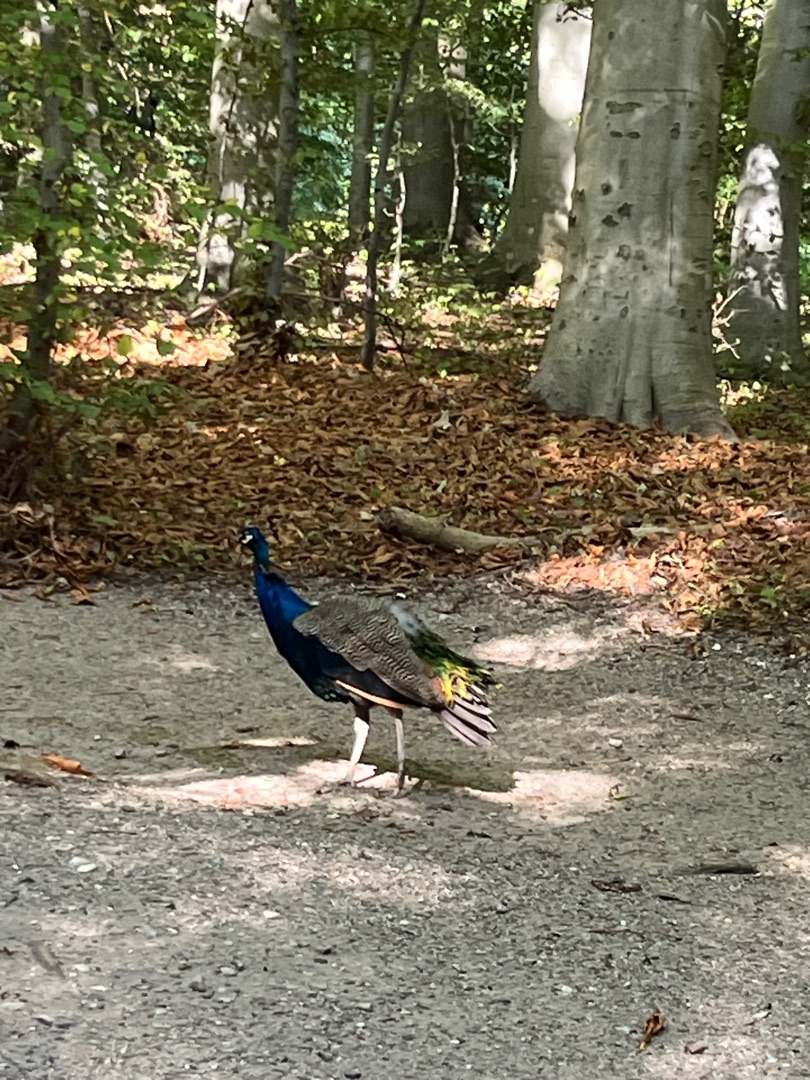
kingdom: Animalia
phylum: Chordata
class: Aves
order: Galliformes
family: Phasianidae
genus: Pavo
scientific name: Pavo cristatus
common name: Påfugl
